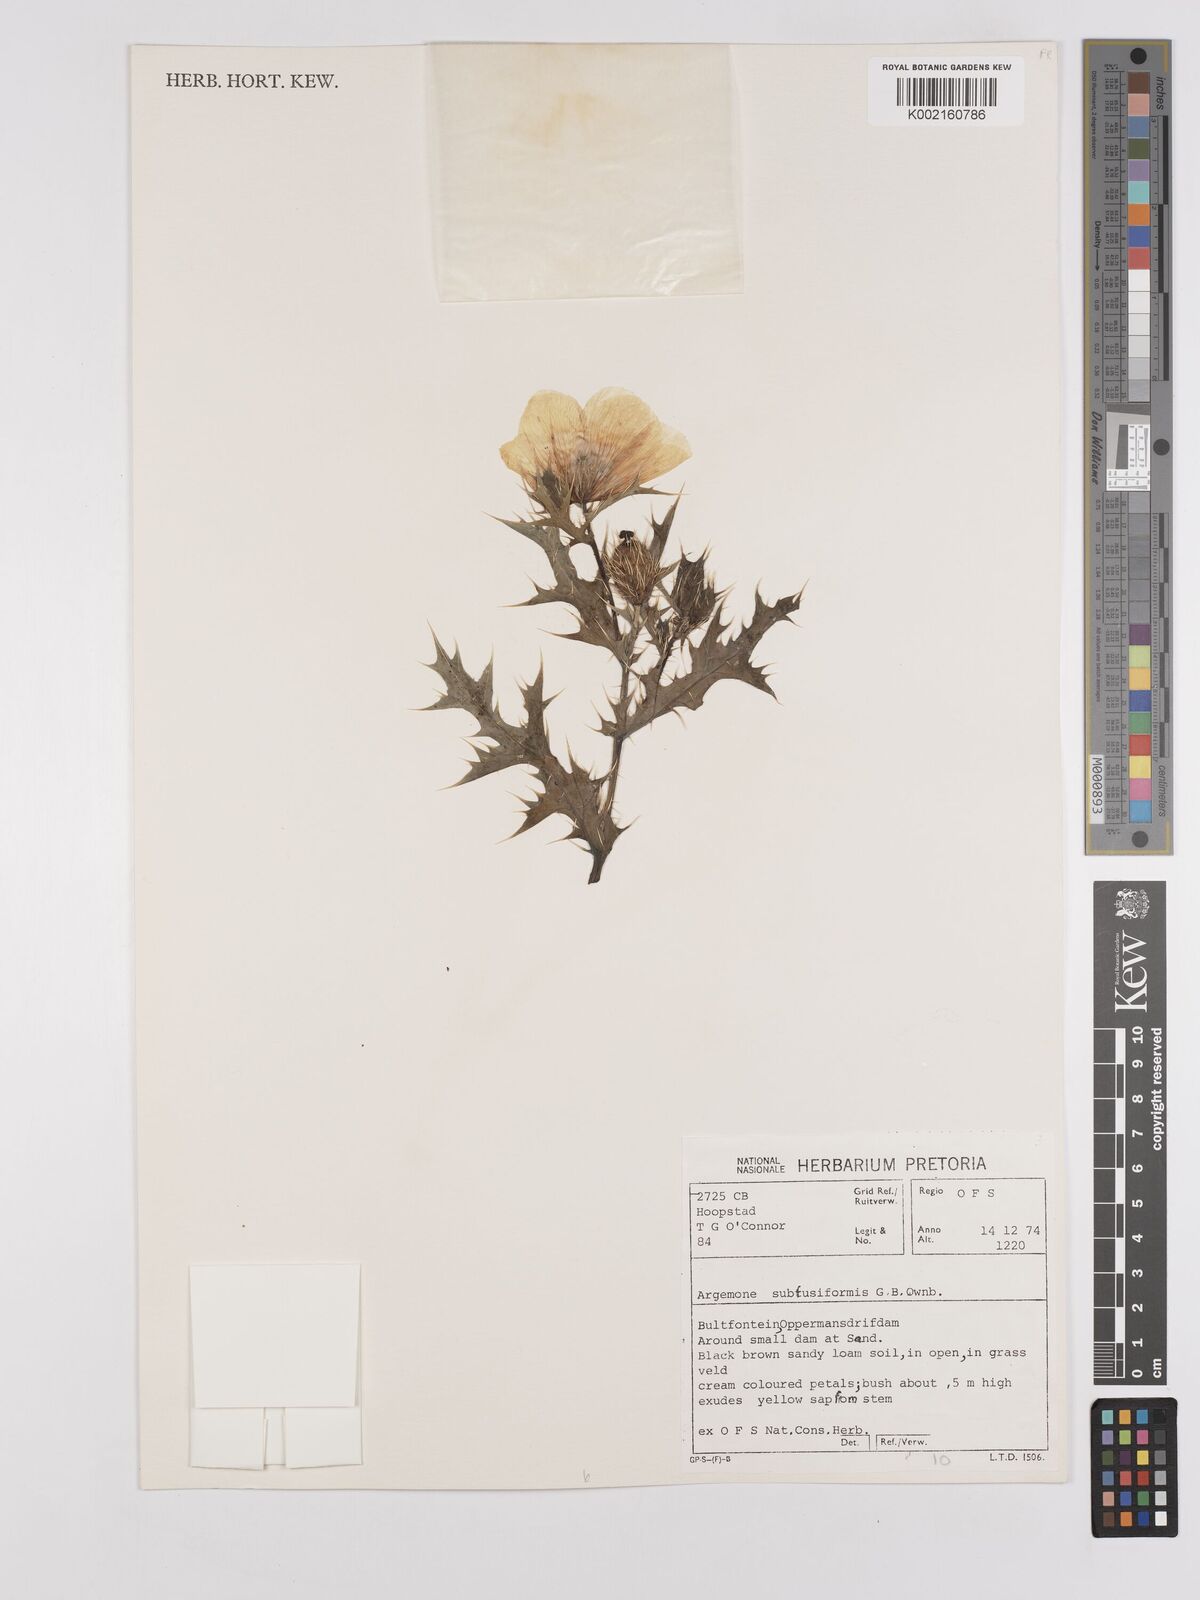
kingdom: Plantae
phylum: Tracheophyta
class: Magnoliopsida
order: Ranunculales
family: Papaveraceae
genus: Argemone
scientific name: Argemone subfusiformis
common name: American-poppy
